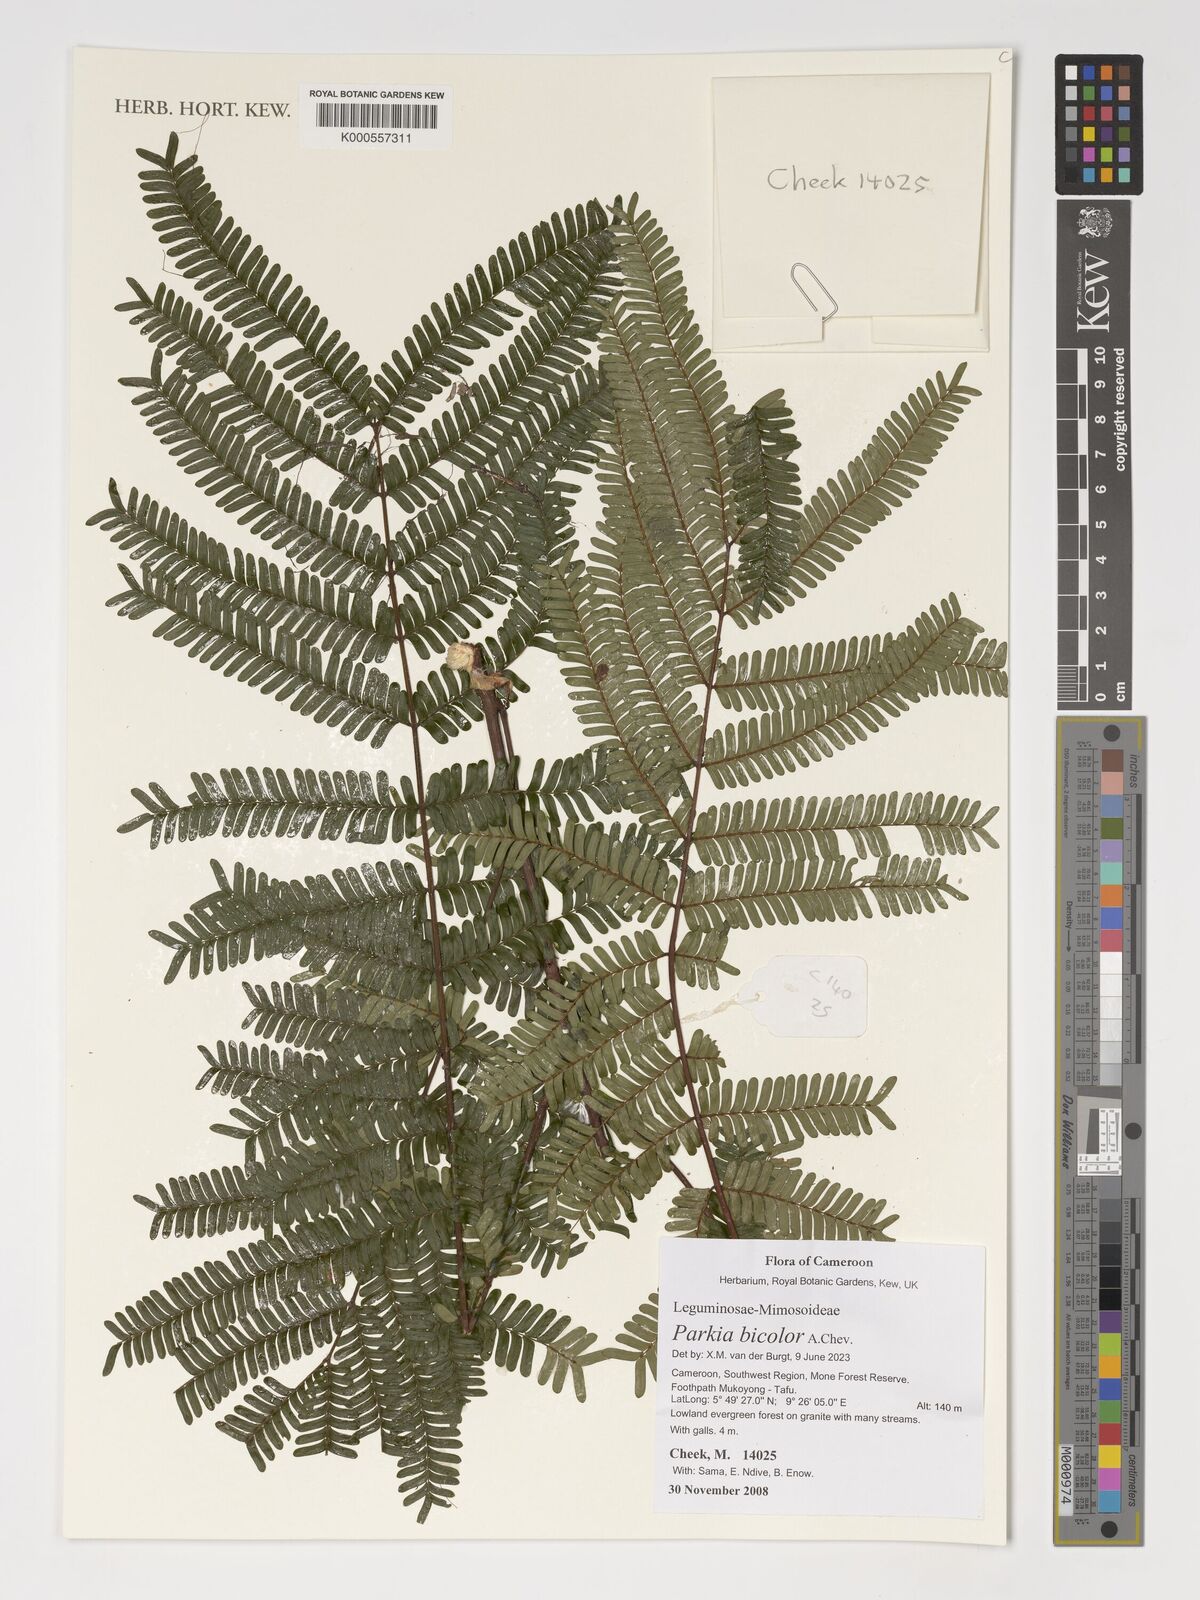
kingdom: Plantae
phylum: Tracheophyta
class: Magnoliopsida
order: Fabales
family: Fabaceae
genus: Parkia
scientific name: Parkia bicolor
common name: African locust-bean
